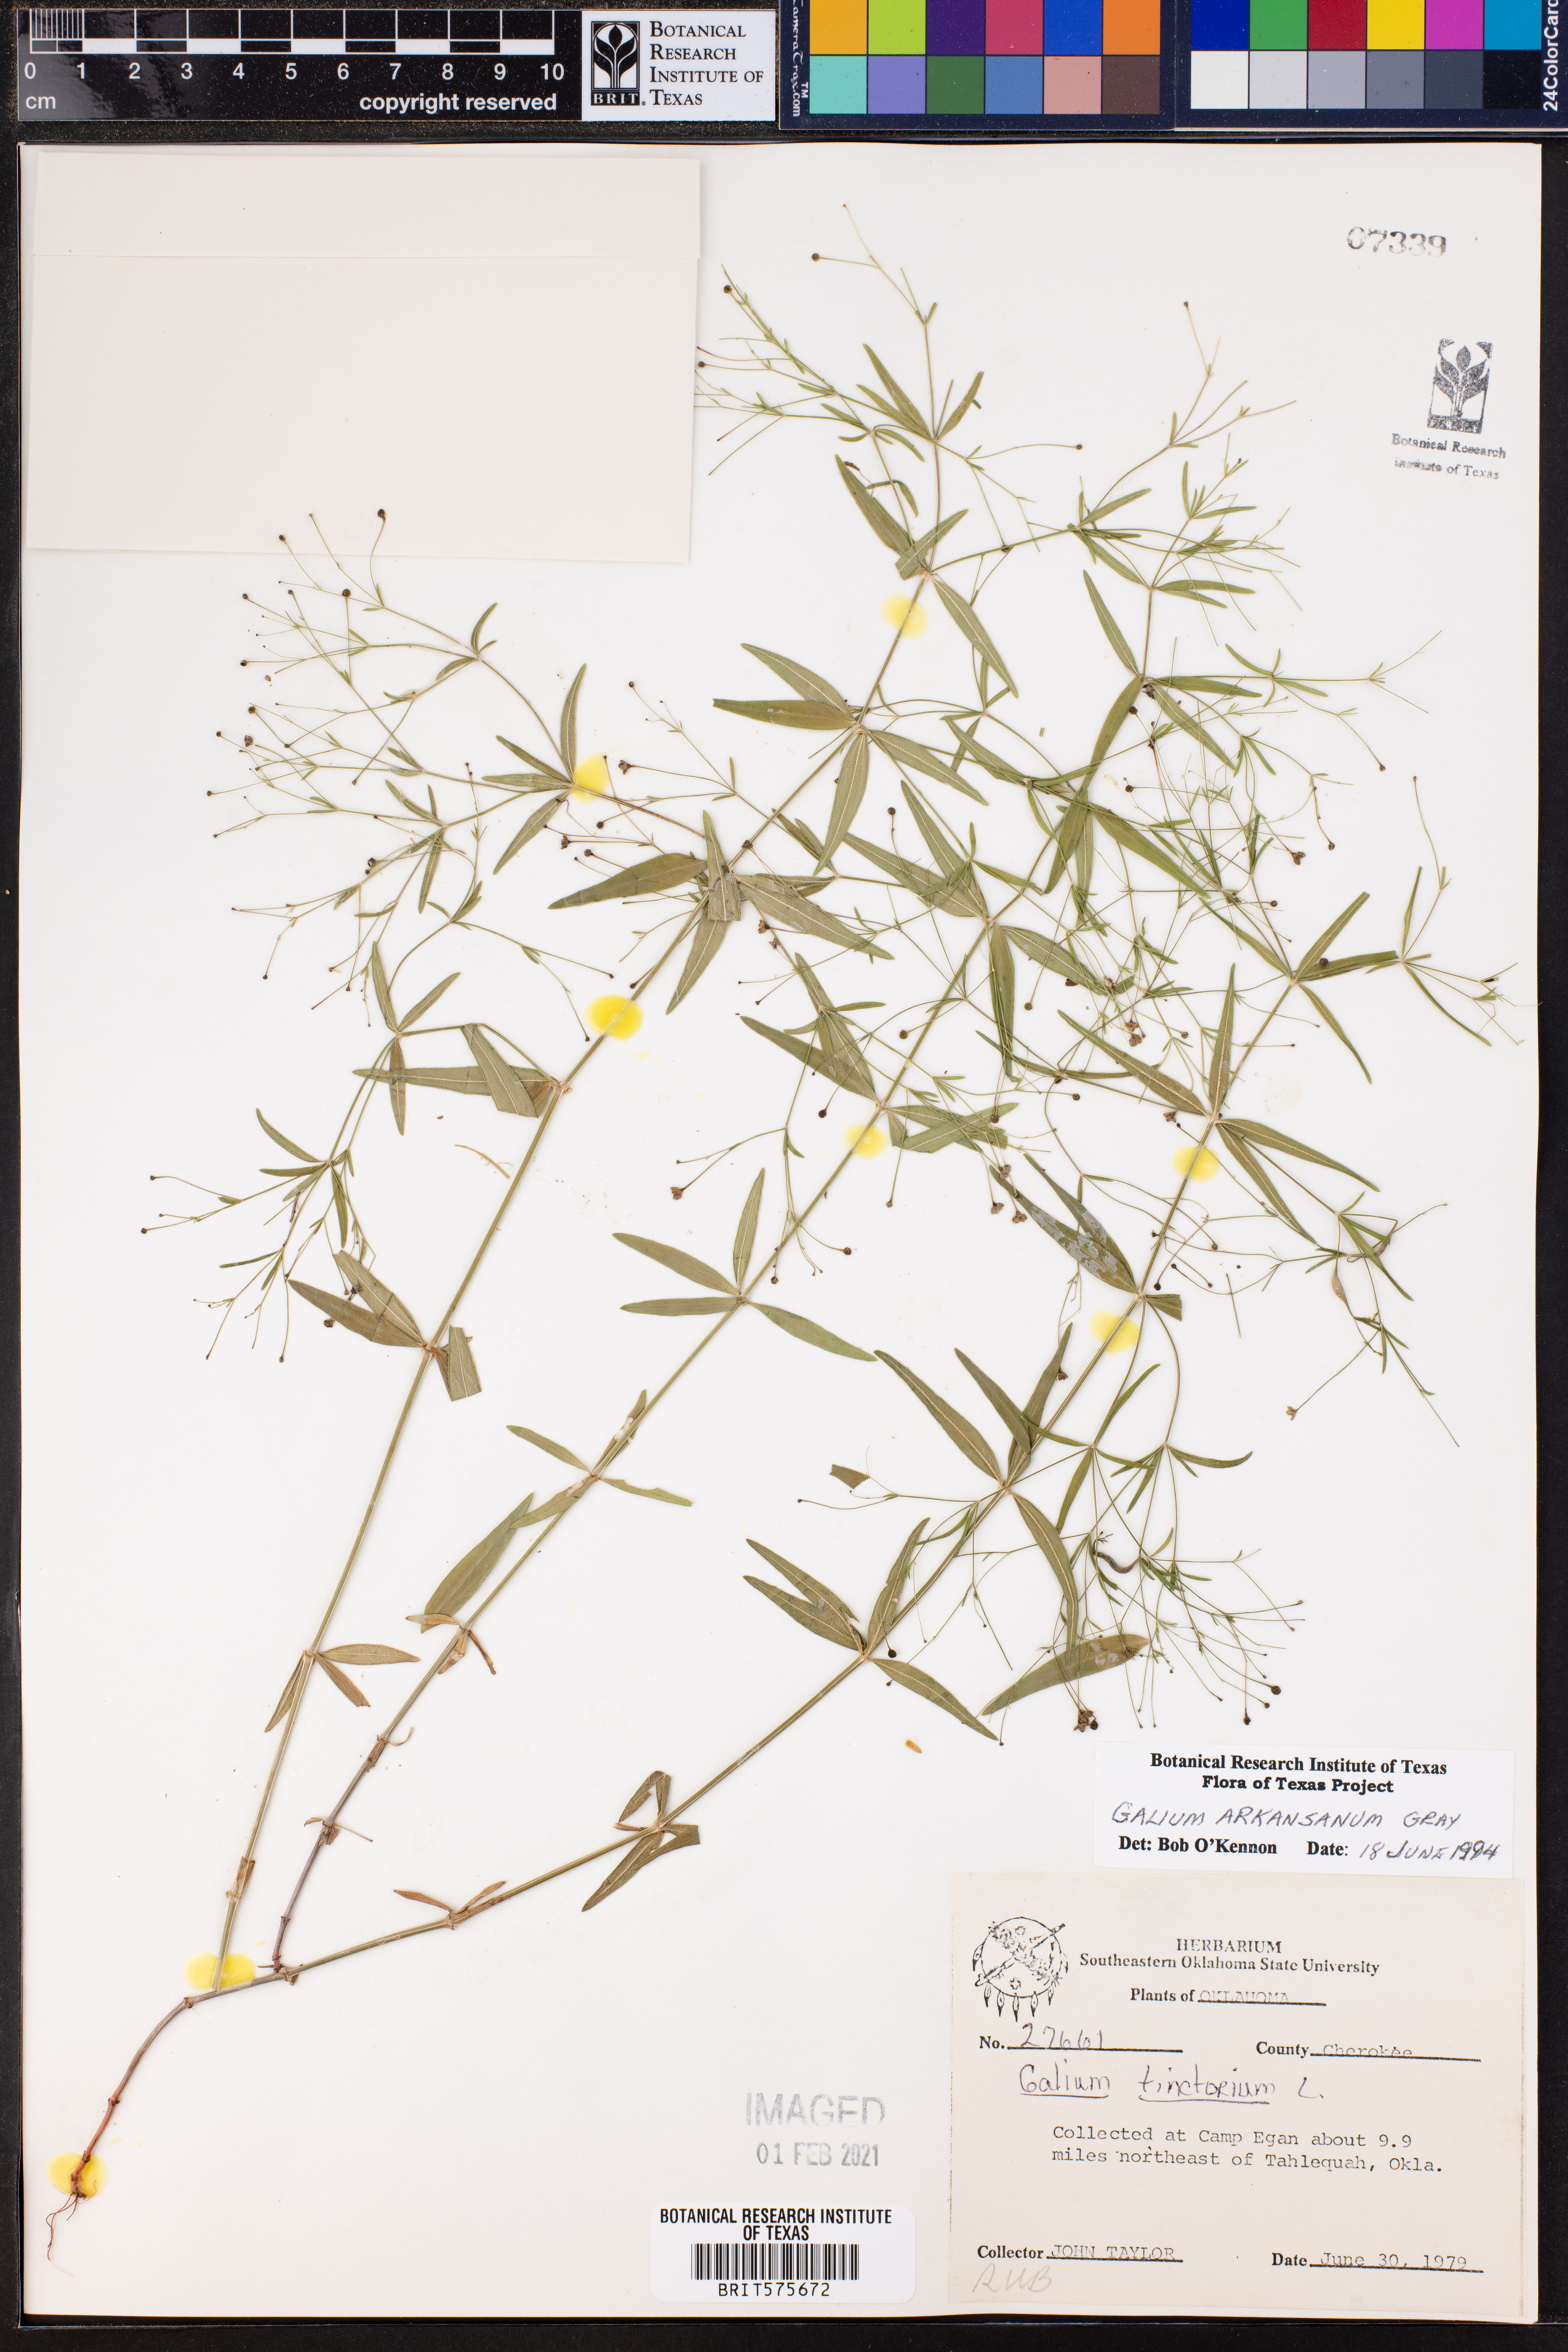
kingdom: Plantae
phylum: Tracheophyta
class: Magnoliopsida
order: Gentianales
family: Rubiaceae
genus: Galium
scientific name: Galium arkansanum
